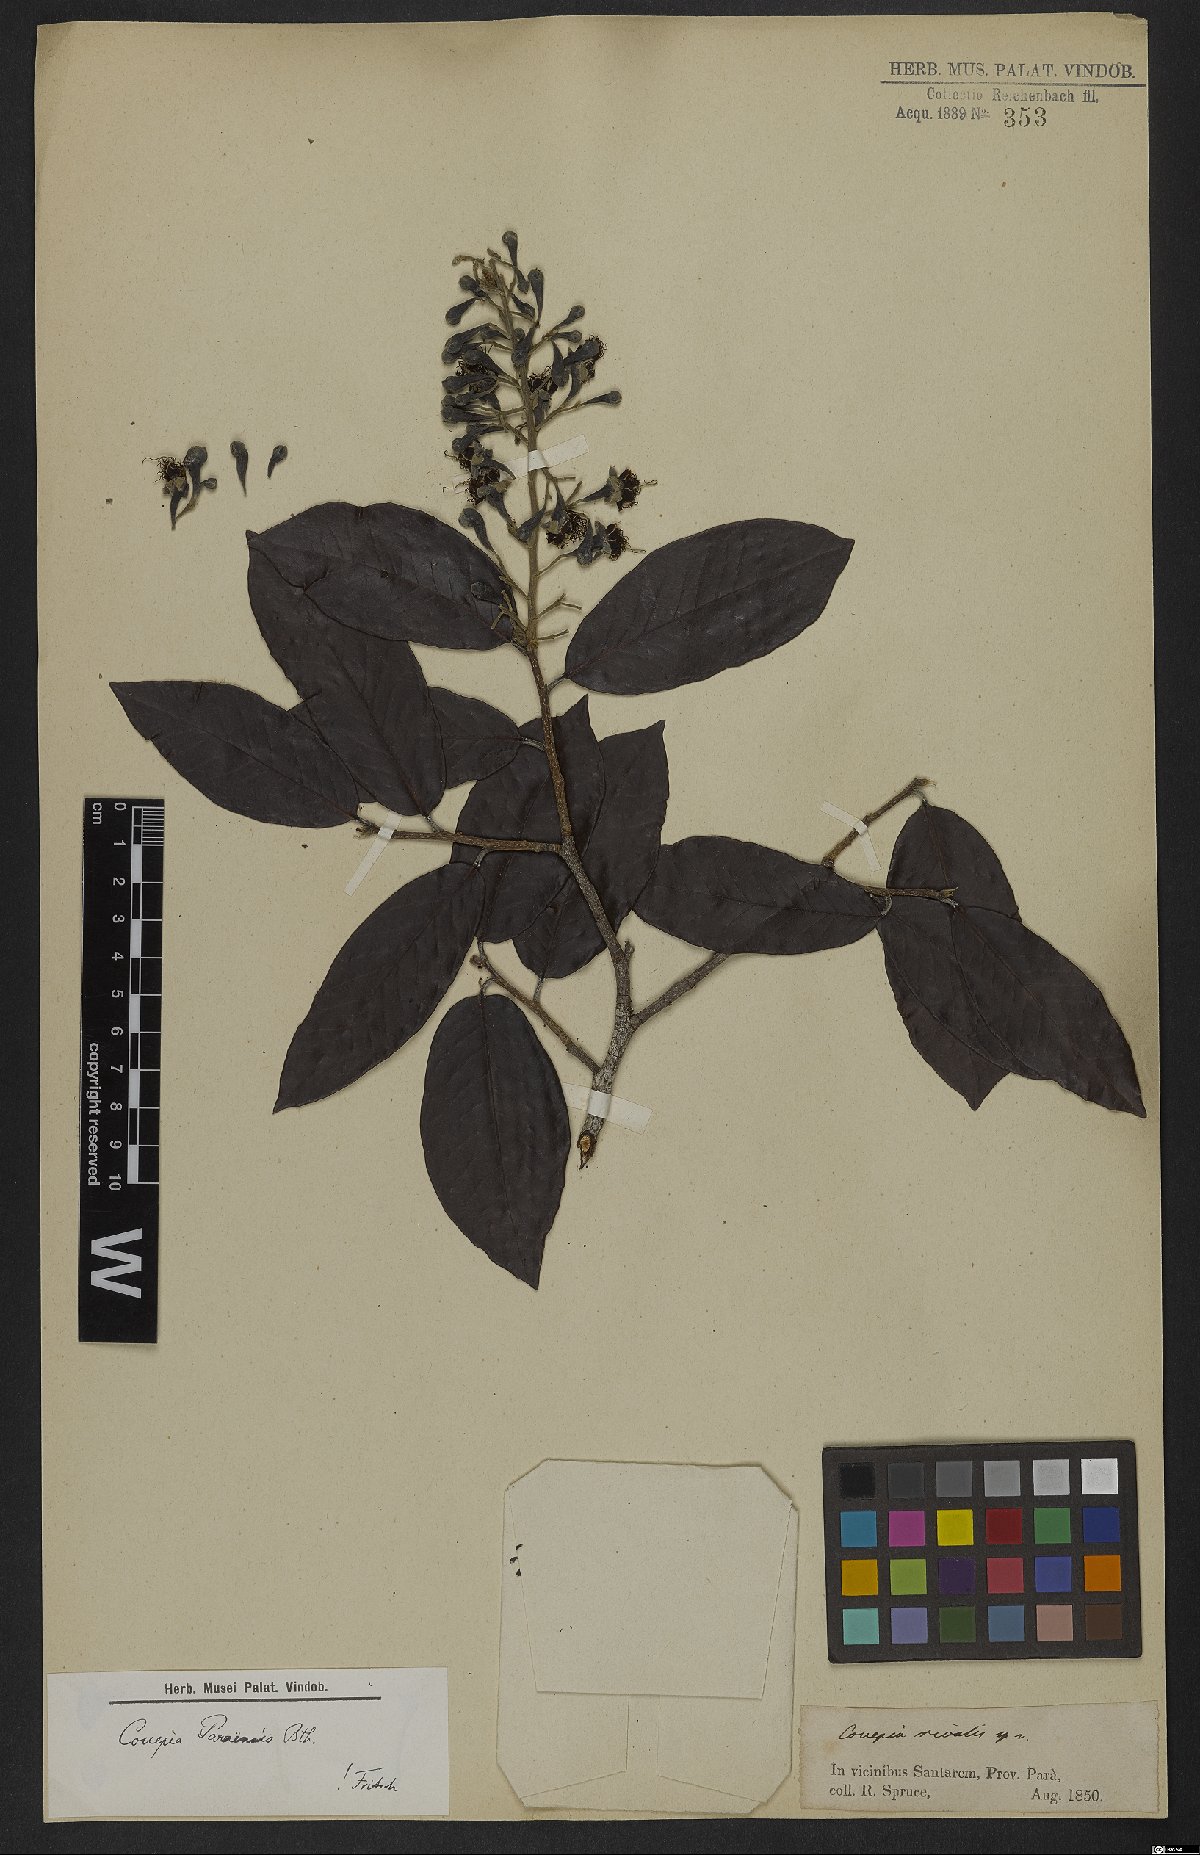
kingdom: Plantae
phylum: Tracheophyta
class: Magnoliopsida
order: Malpighiales
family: Chrysobalanaceae
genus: Couepia
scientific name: Couepia paraensis
